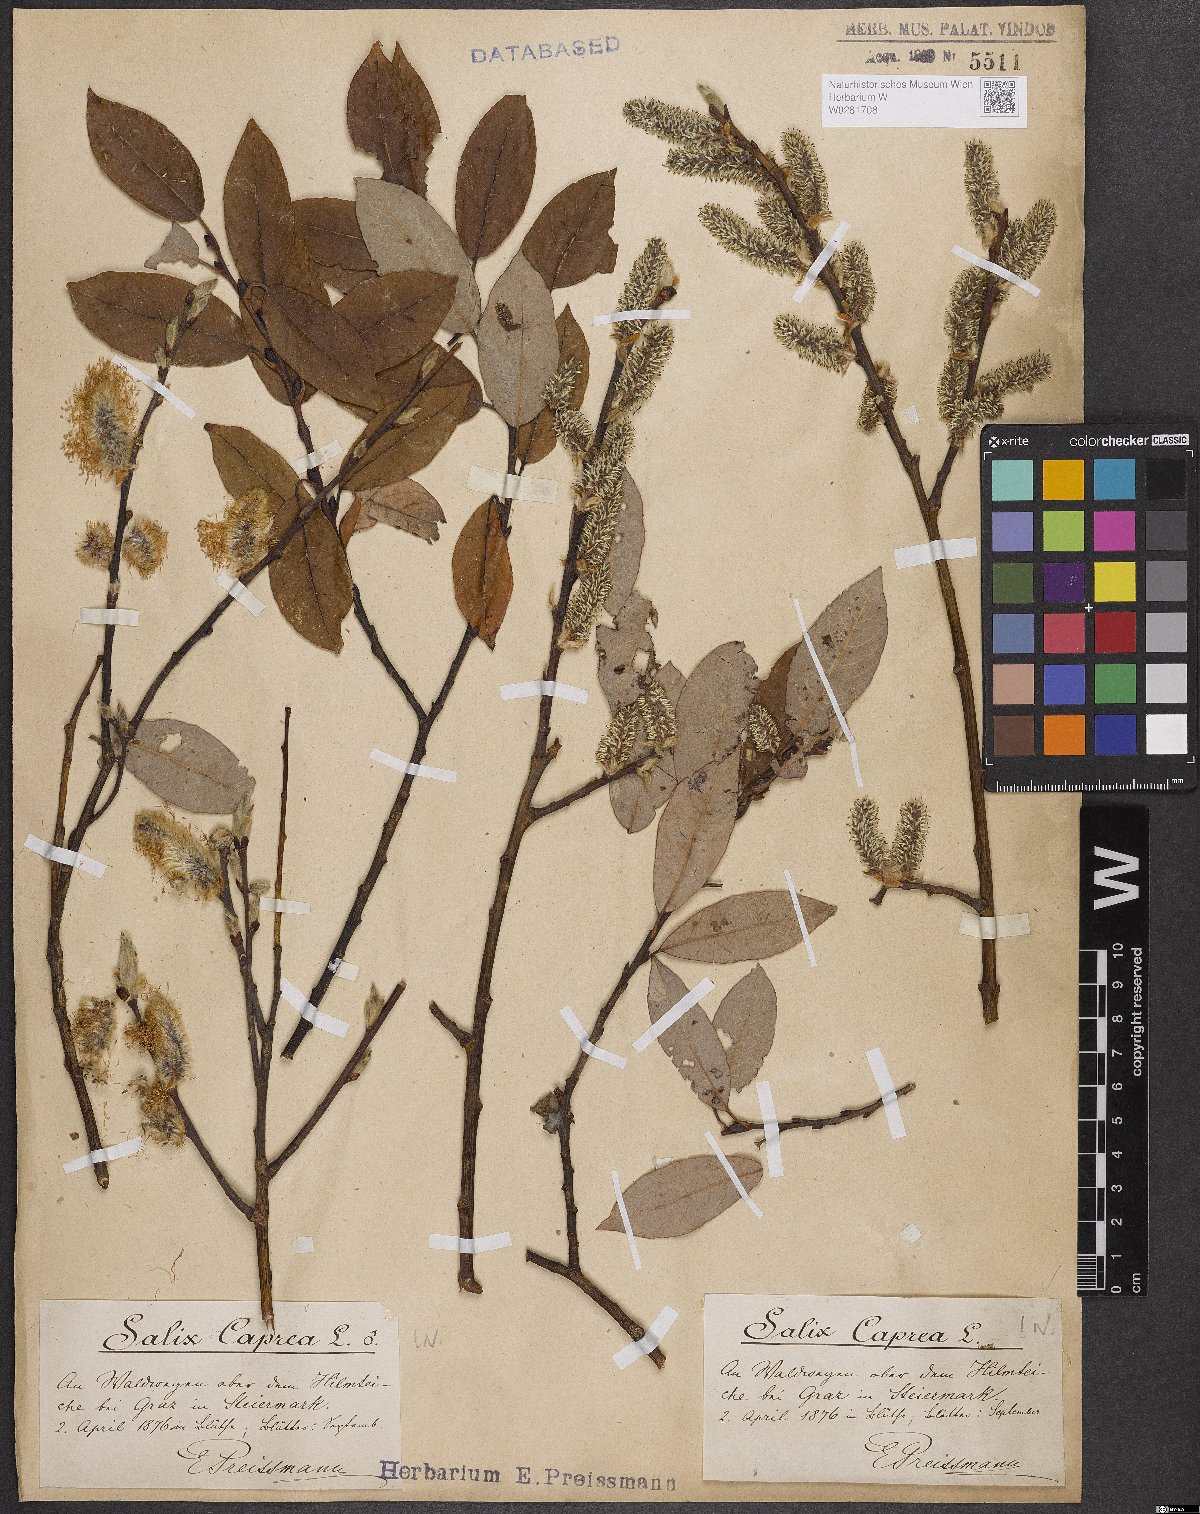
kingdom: Plantae
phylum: Tracheophyta
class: Magnoliopsida
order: Malpighiales
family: Salicaceae
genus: Salix
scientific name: Salix caprea
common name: Goat willow
